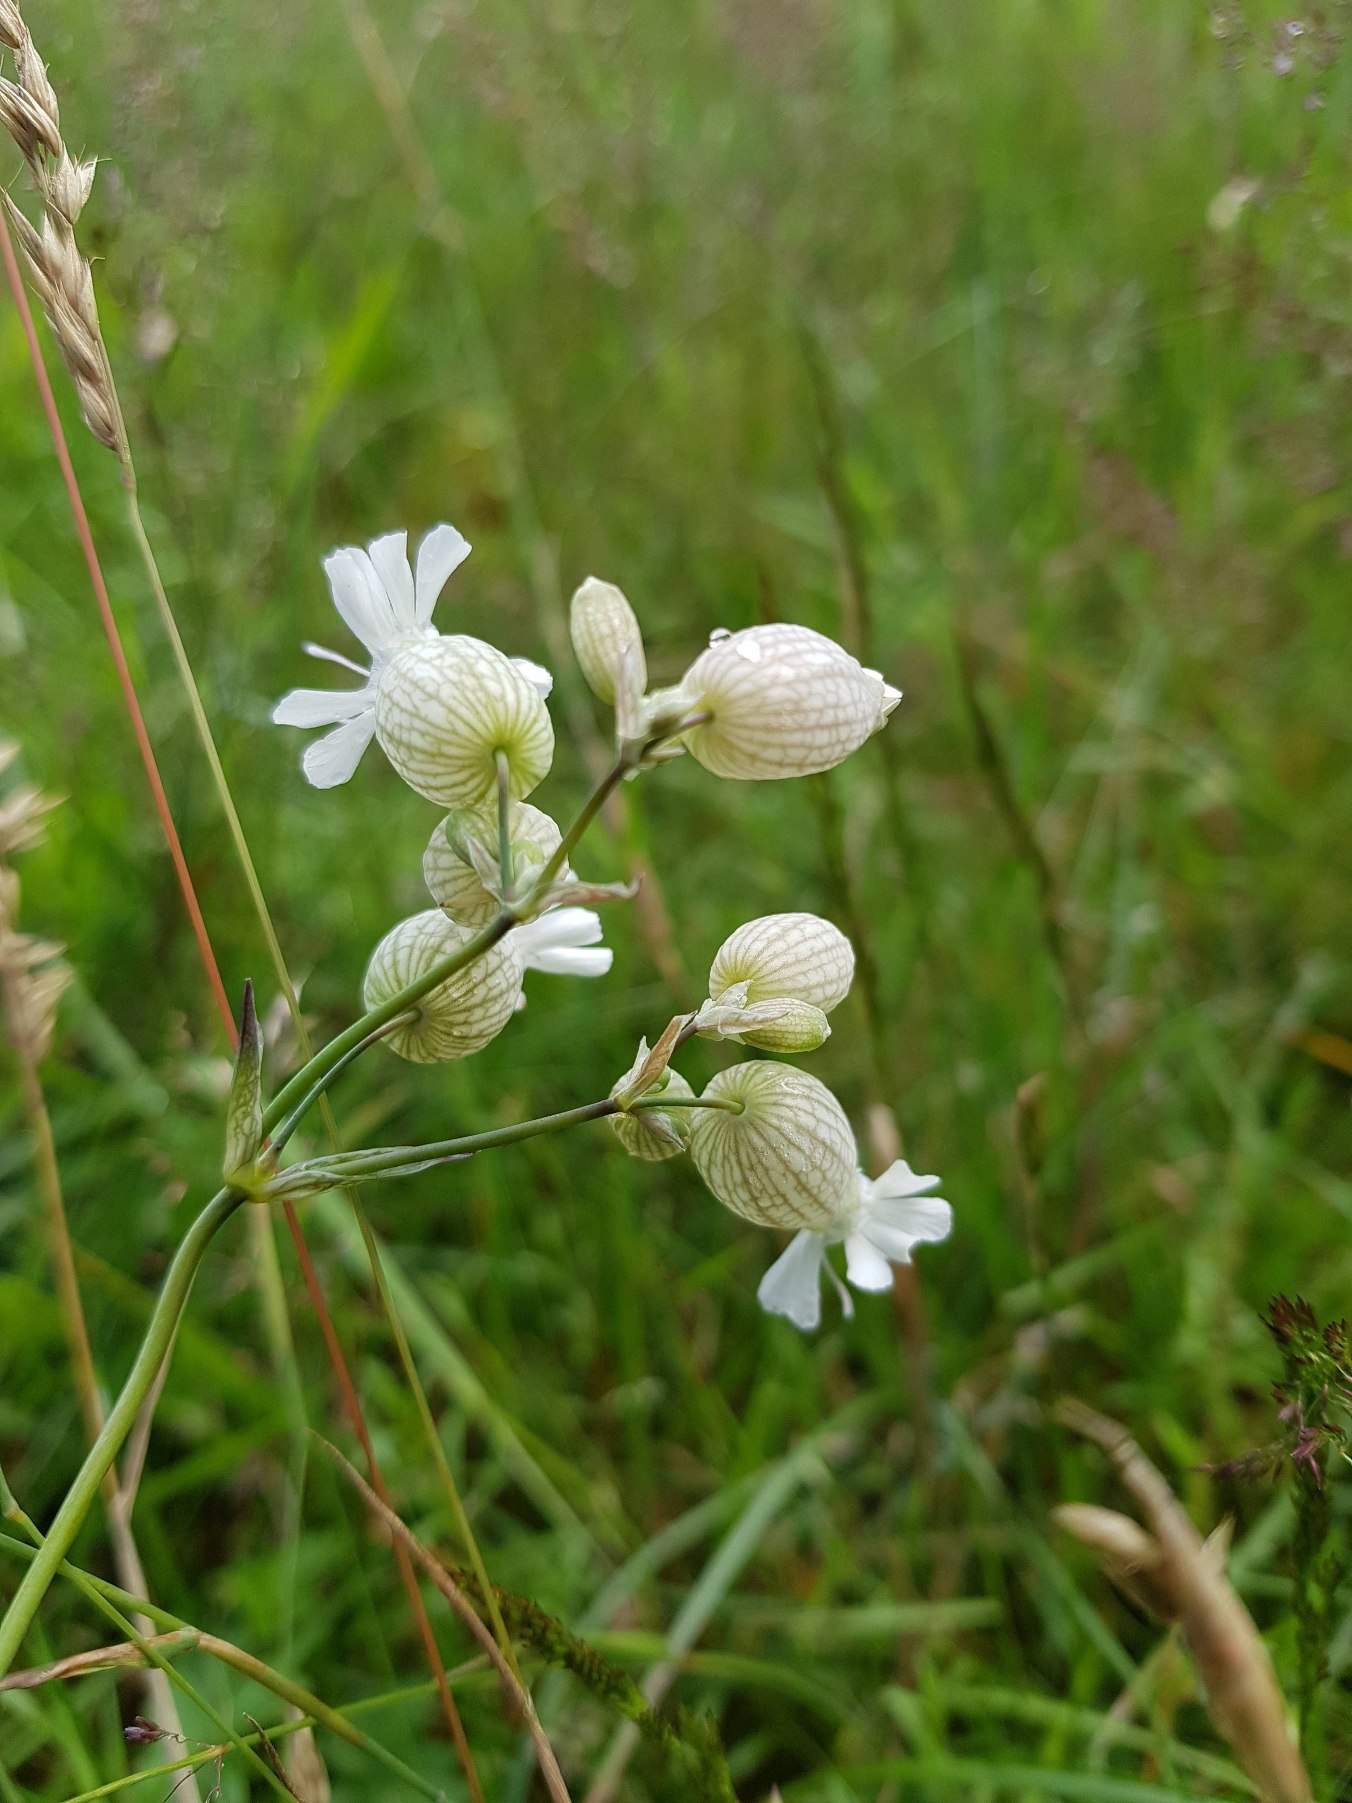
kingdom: Plantae
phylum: Tracheophyta
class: Magnoliopsida
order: Caryophyllales
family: Caryophyllaceae
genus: Silene
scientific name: Silene vulgaris
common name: Blæresmælde
